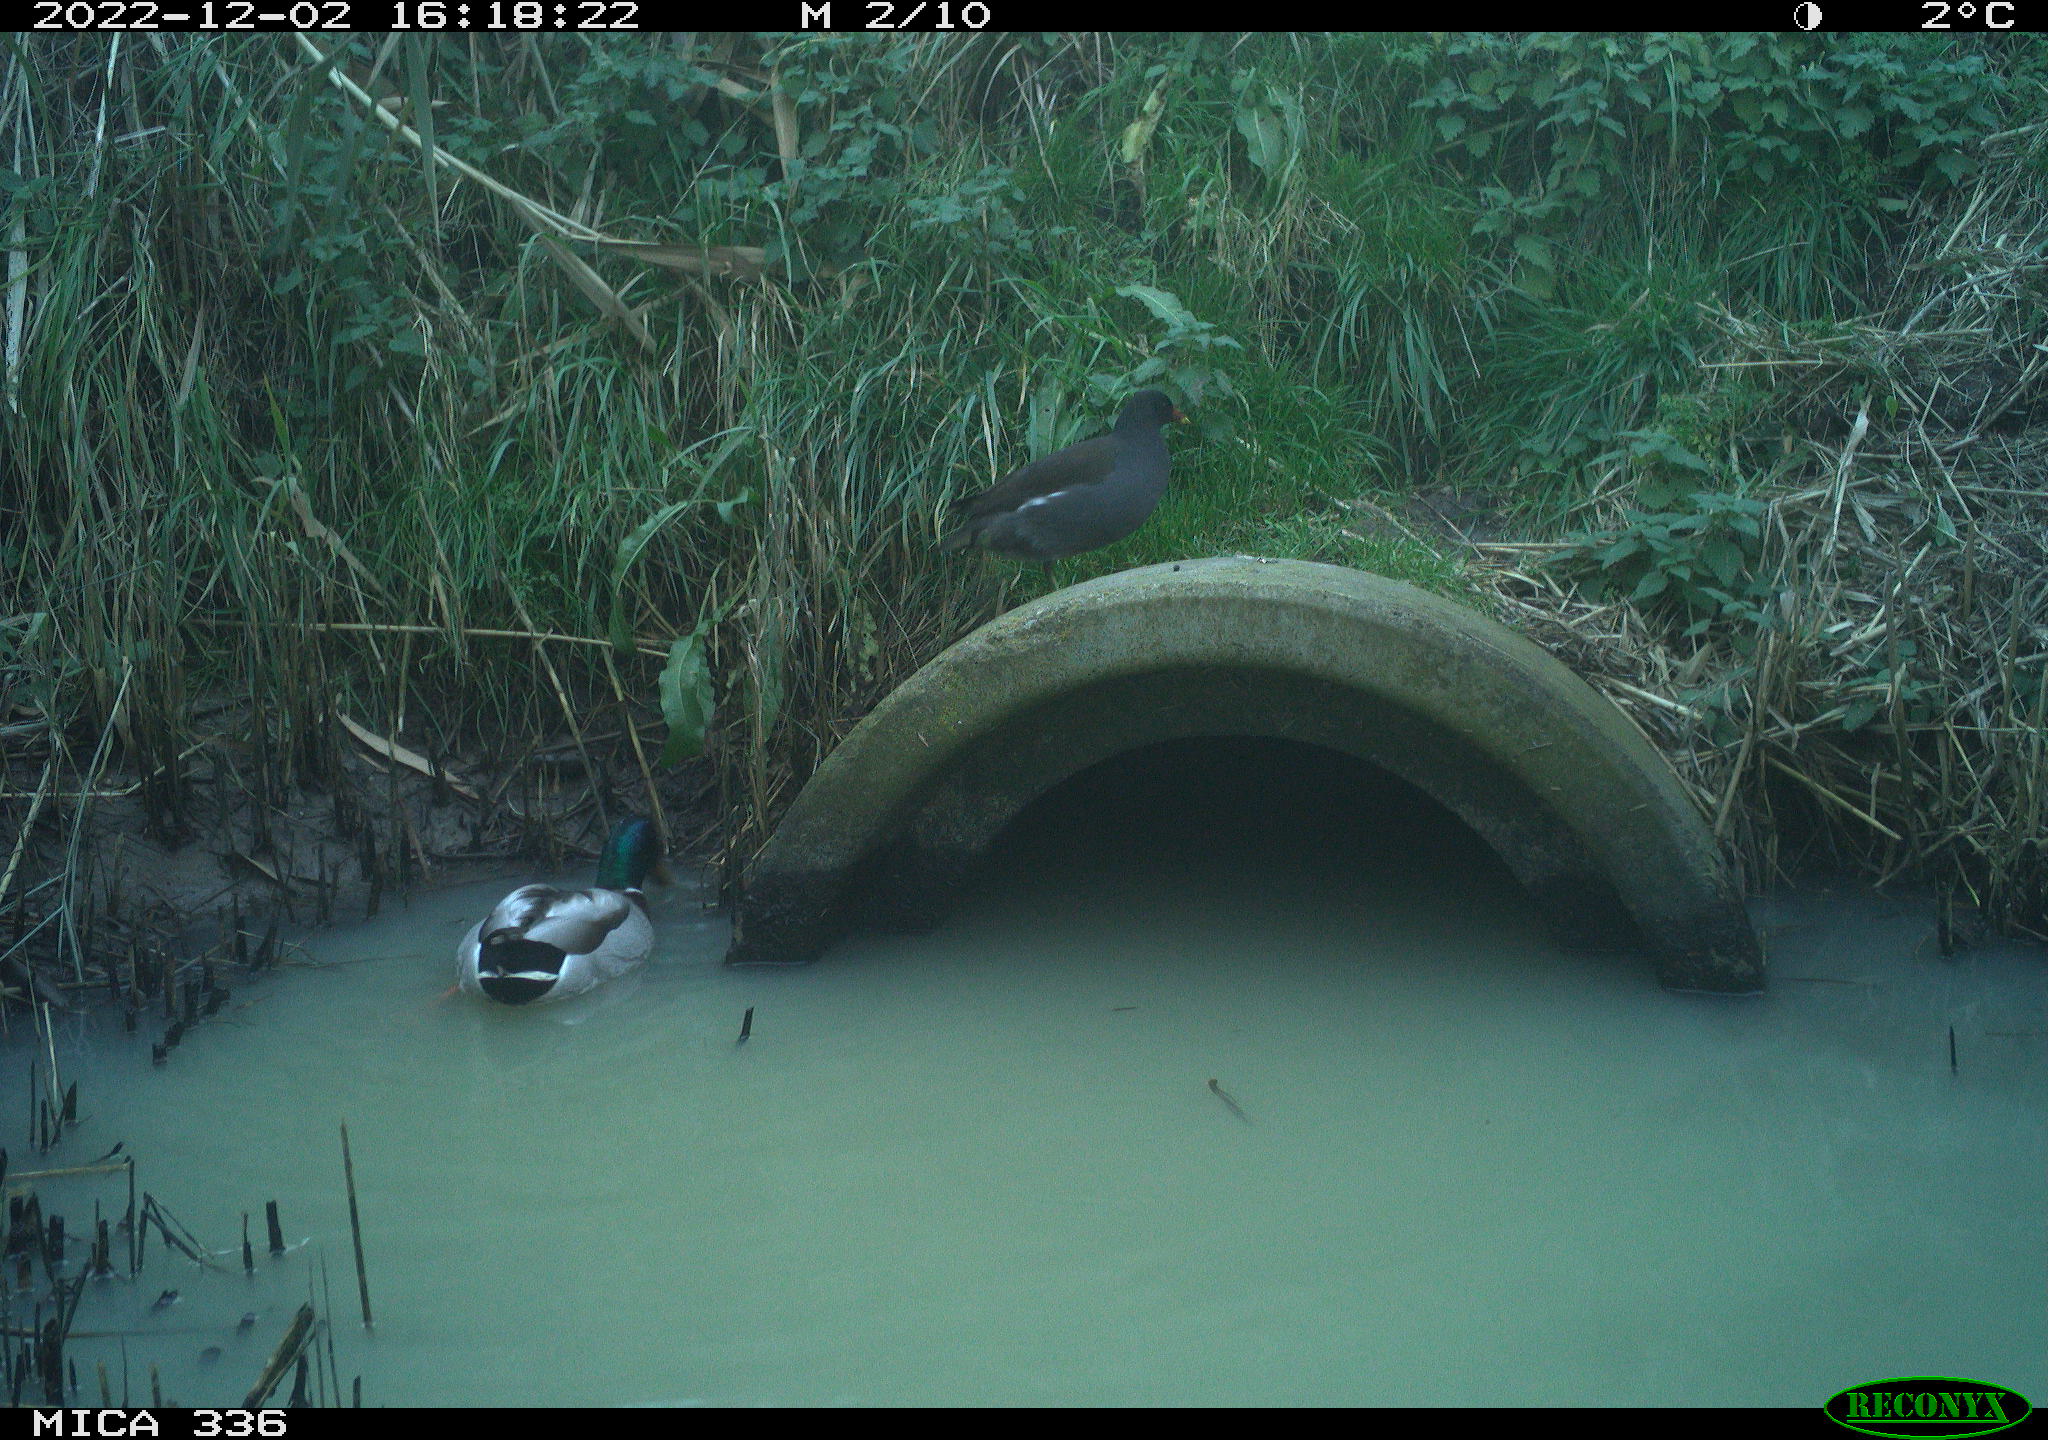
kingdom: Animalia
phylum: Chordata
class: Aves
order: Gruiformes
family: Rallidae
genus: Gallinula
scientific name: Gallinula chloropus
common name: Common moorhen
